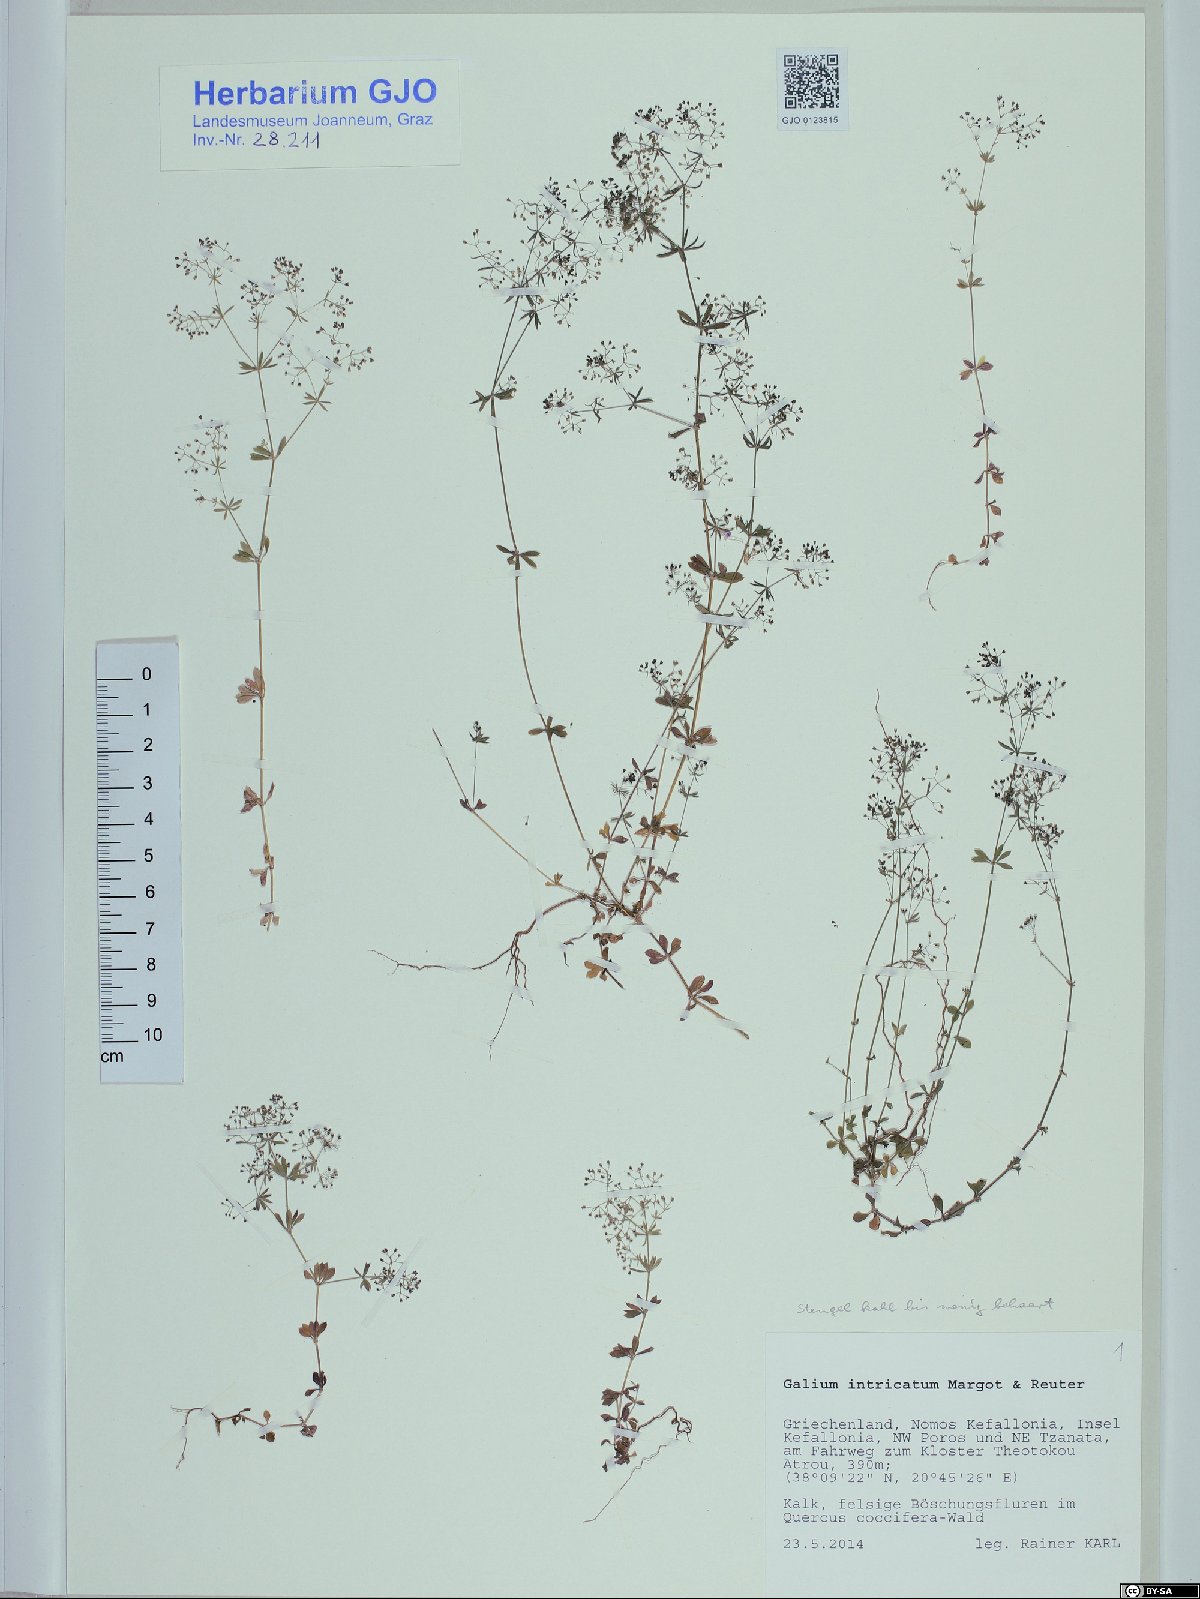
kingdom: Plantae
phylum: Tracheophyta
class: Magnoliopsida
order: Gentianales
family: Rubiaceae
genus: Galium
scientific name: Galium intricatum
